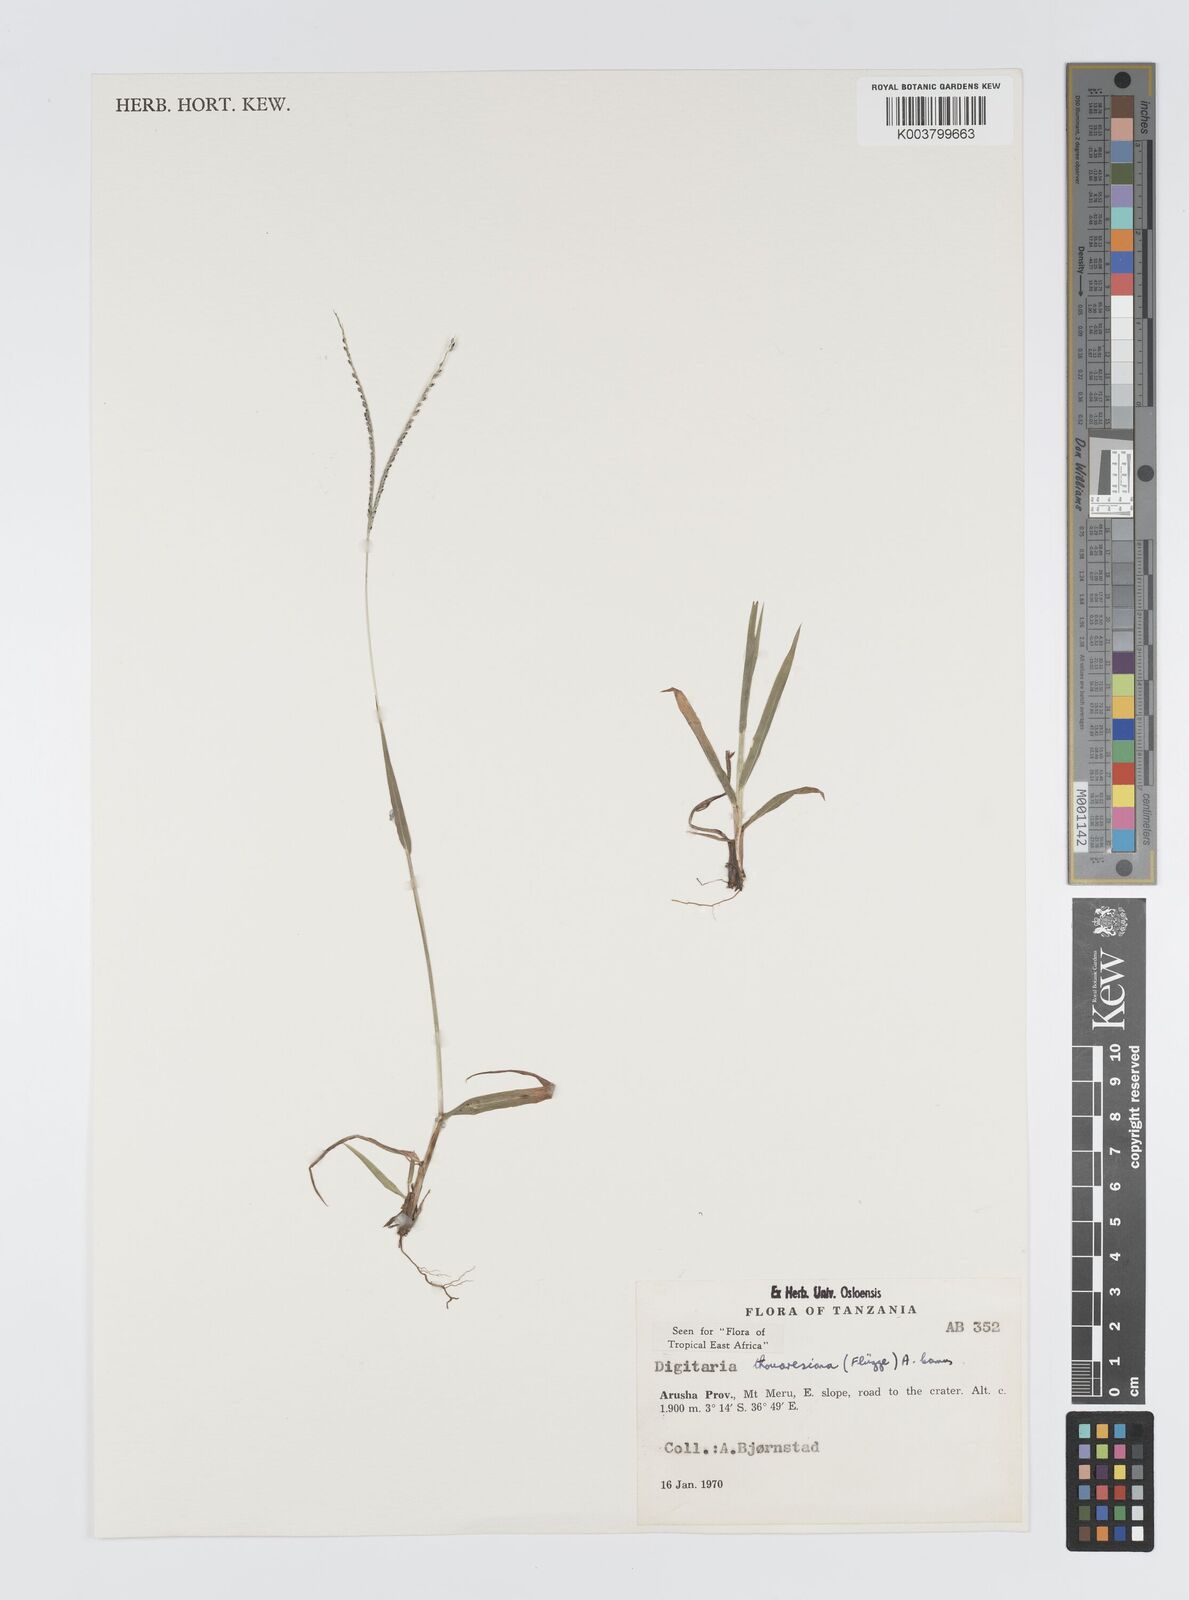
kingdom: Plantae
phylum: Tracheophyta
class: Liliopsida
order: Poales
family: Poaceae
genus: Digitaria
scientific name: Digitaria thouarsiana
